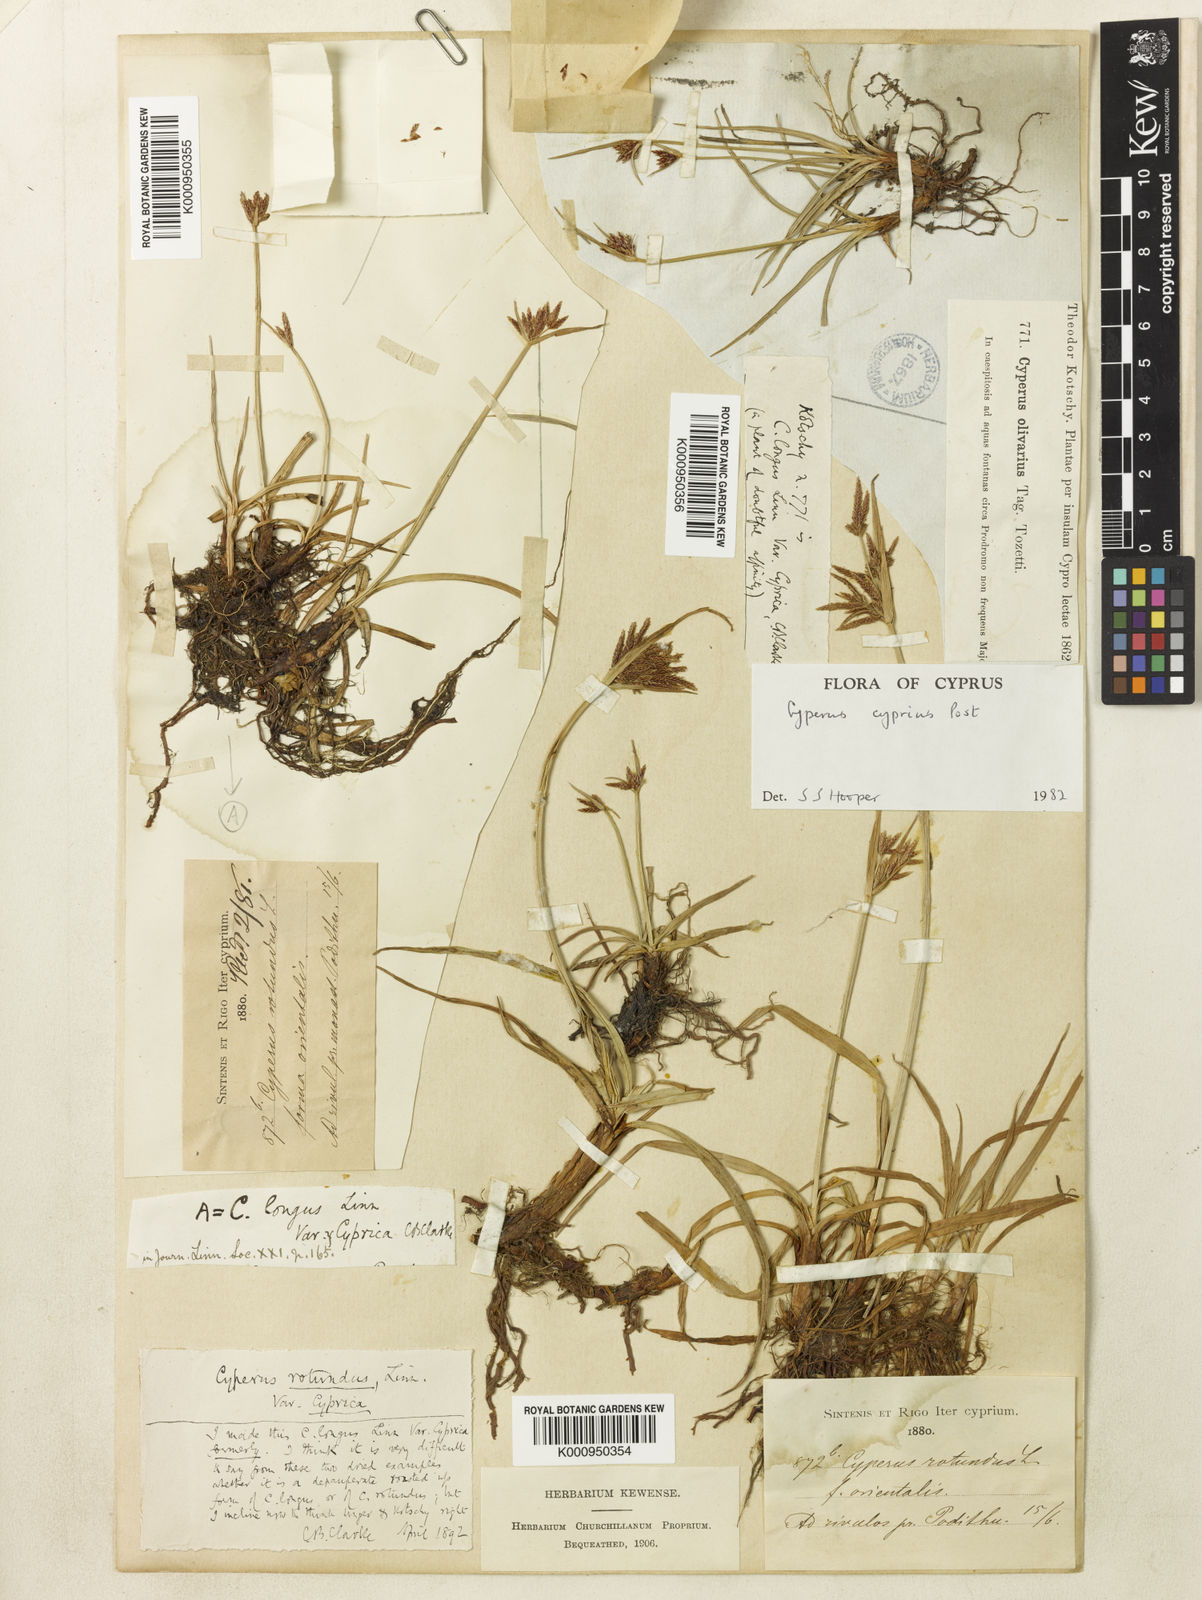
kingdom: Plantae
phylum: Tracheophyta
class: Liliopsida
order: Poales
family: Cyperaceae
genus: Cyperus
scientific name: Cyperus longus
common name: Galingale
